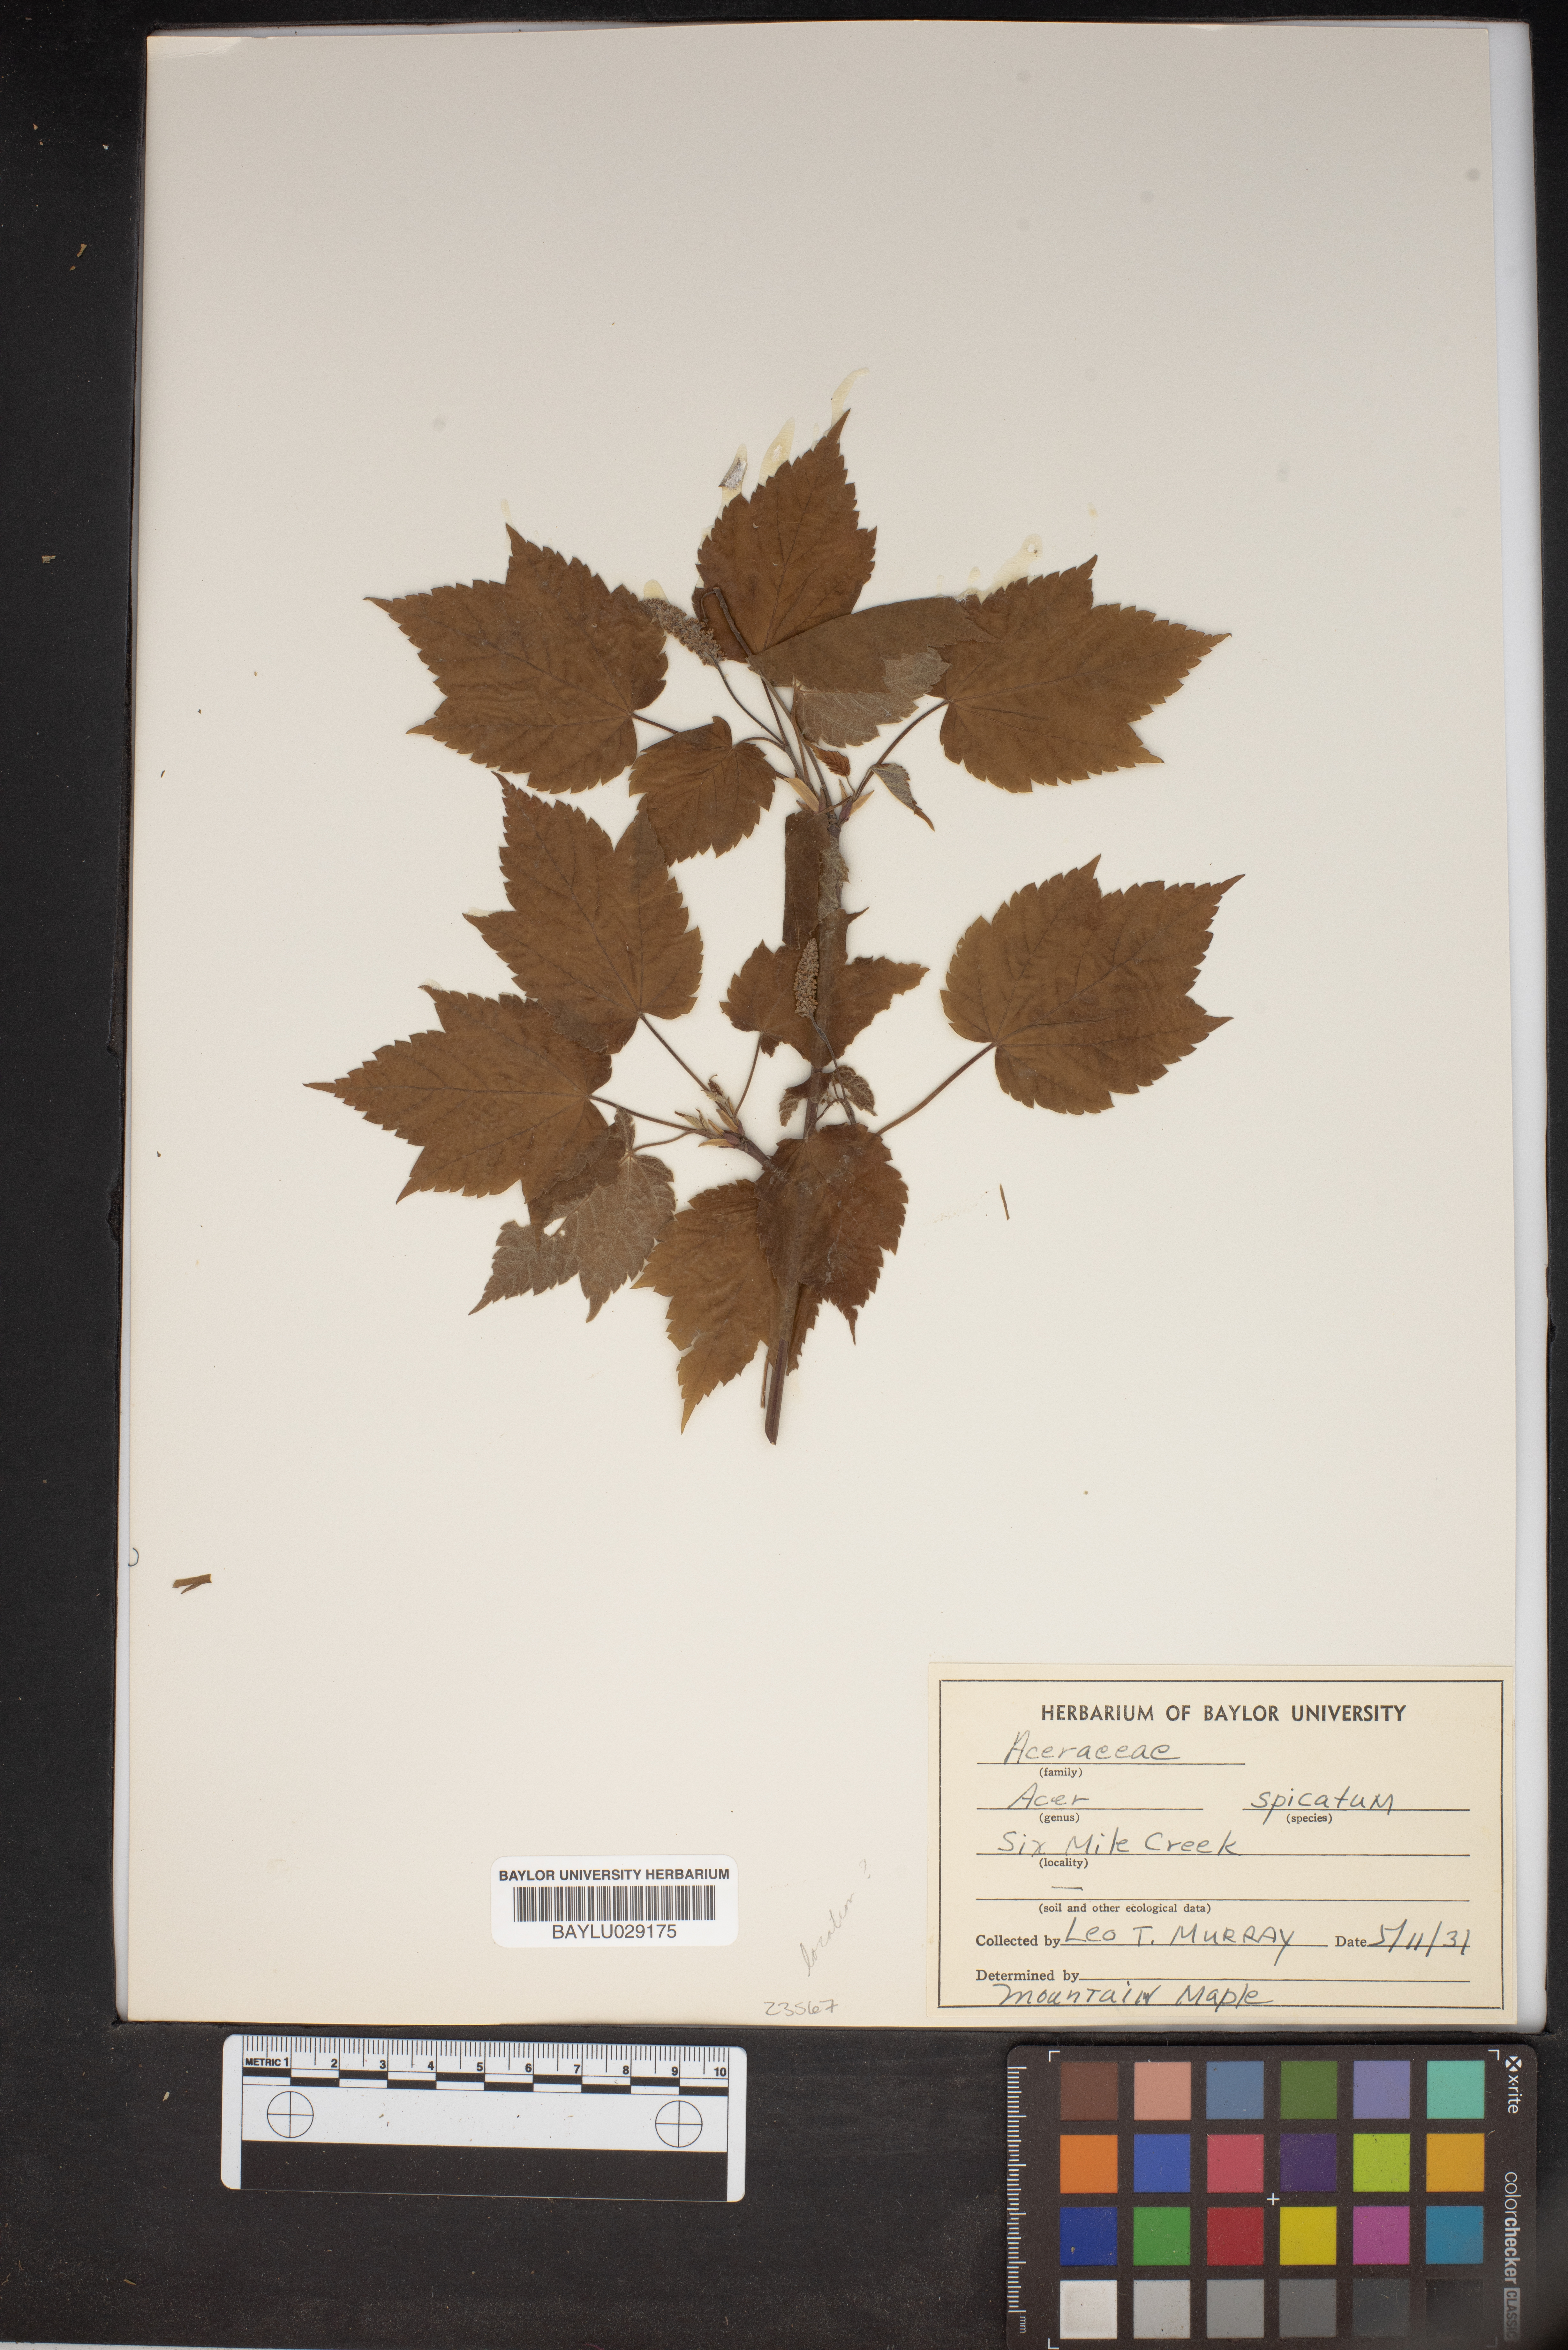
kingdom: Plantae
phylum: Tracheophyta
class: Magnoliopsida
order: Sapindales
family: Sapindaceae
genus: Acer
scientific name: Acer spicatum
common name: Mountain maple
